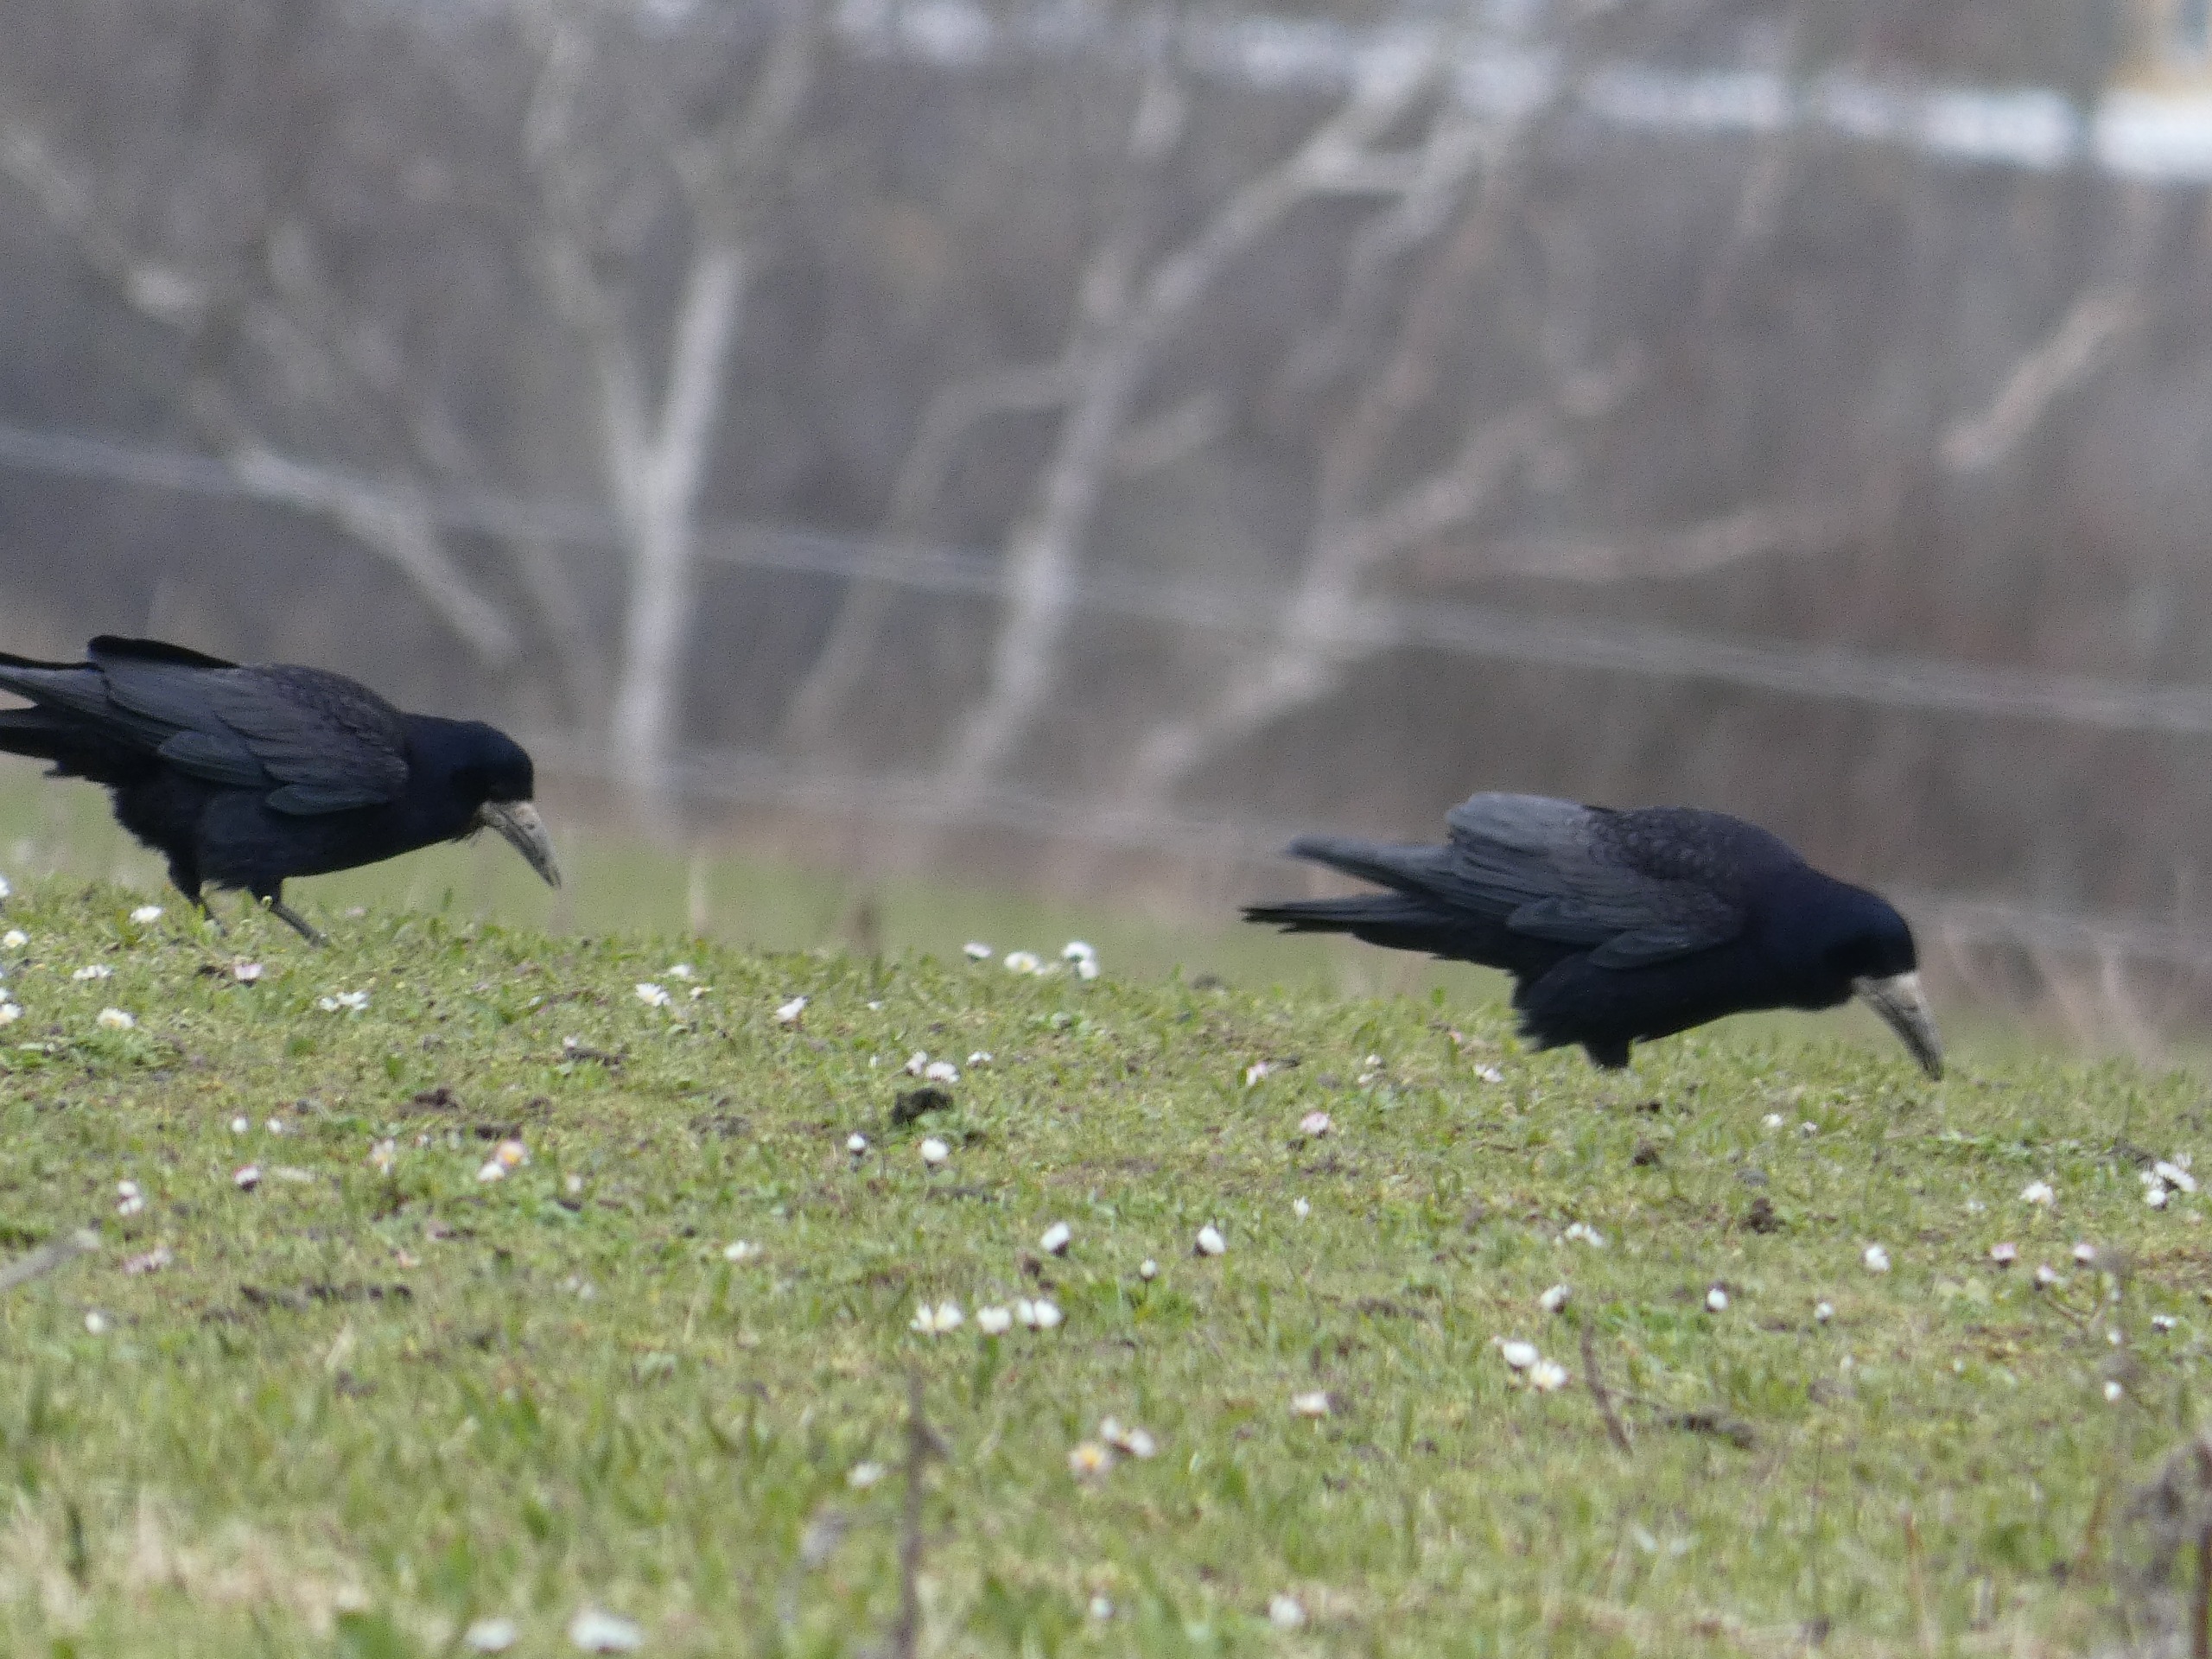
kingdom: Animalia
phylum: Chordata
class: Aves
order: Passeriformes
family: Corvidae
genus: Corvus
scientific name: Corvus frugilegus
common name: Råge
